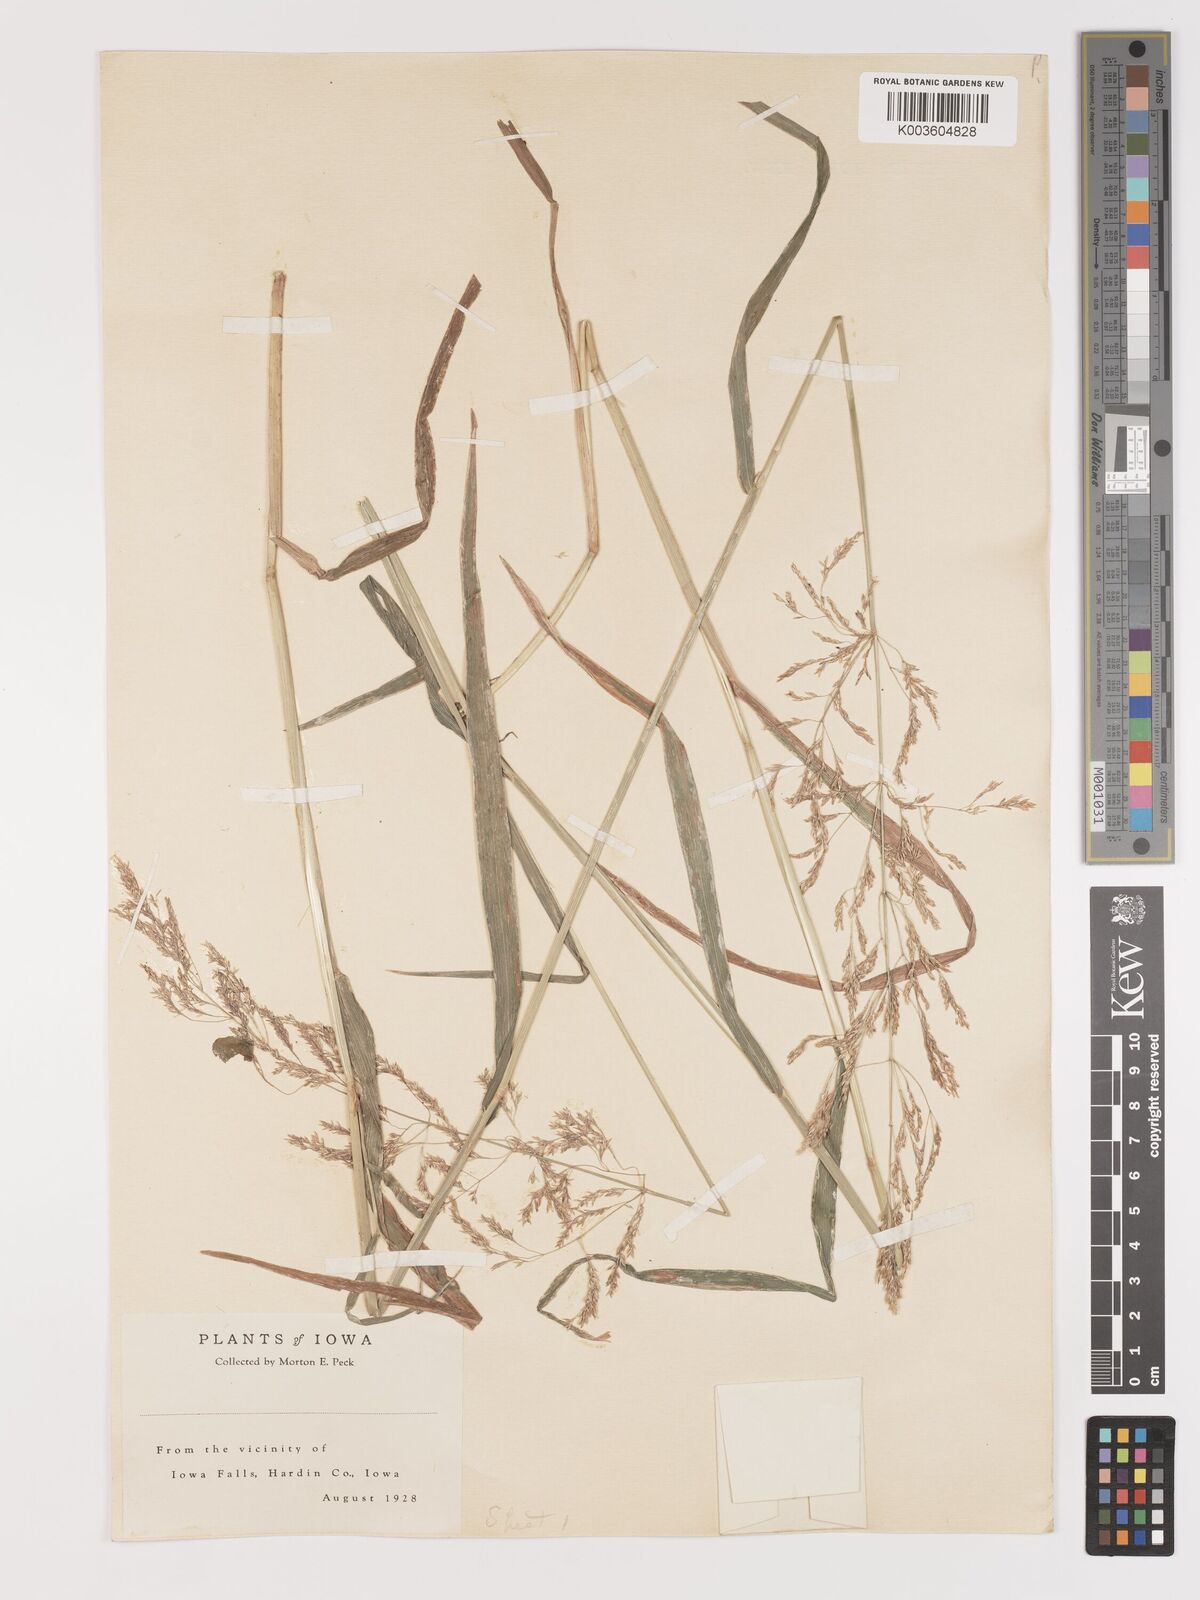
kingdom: Plantae
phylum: Tracheophyta
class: Liliopsida
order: Poales
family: Poaceae
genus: Agrostis
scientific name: Agrostis
